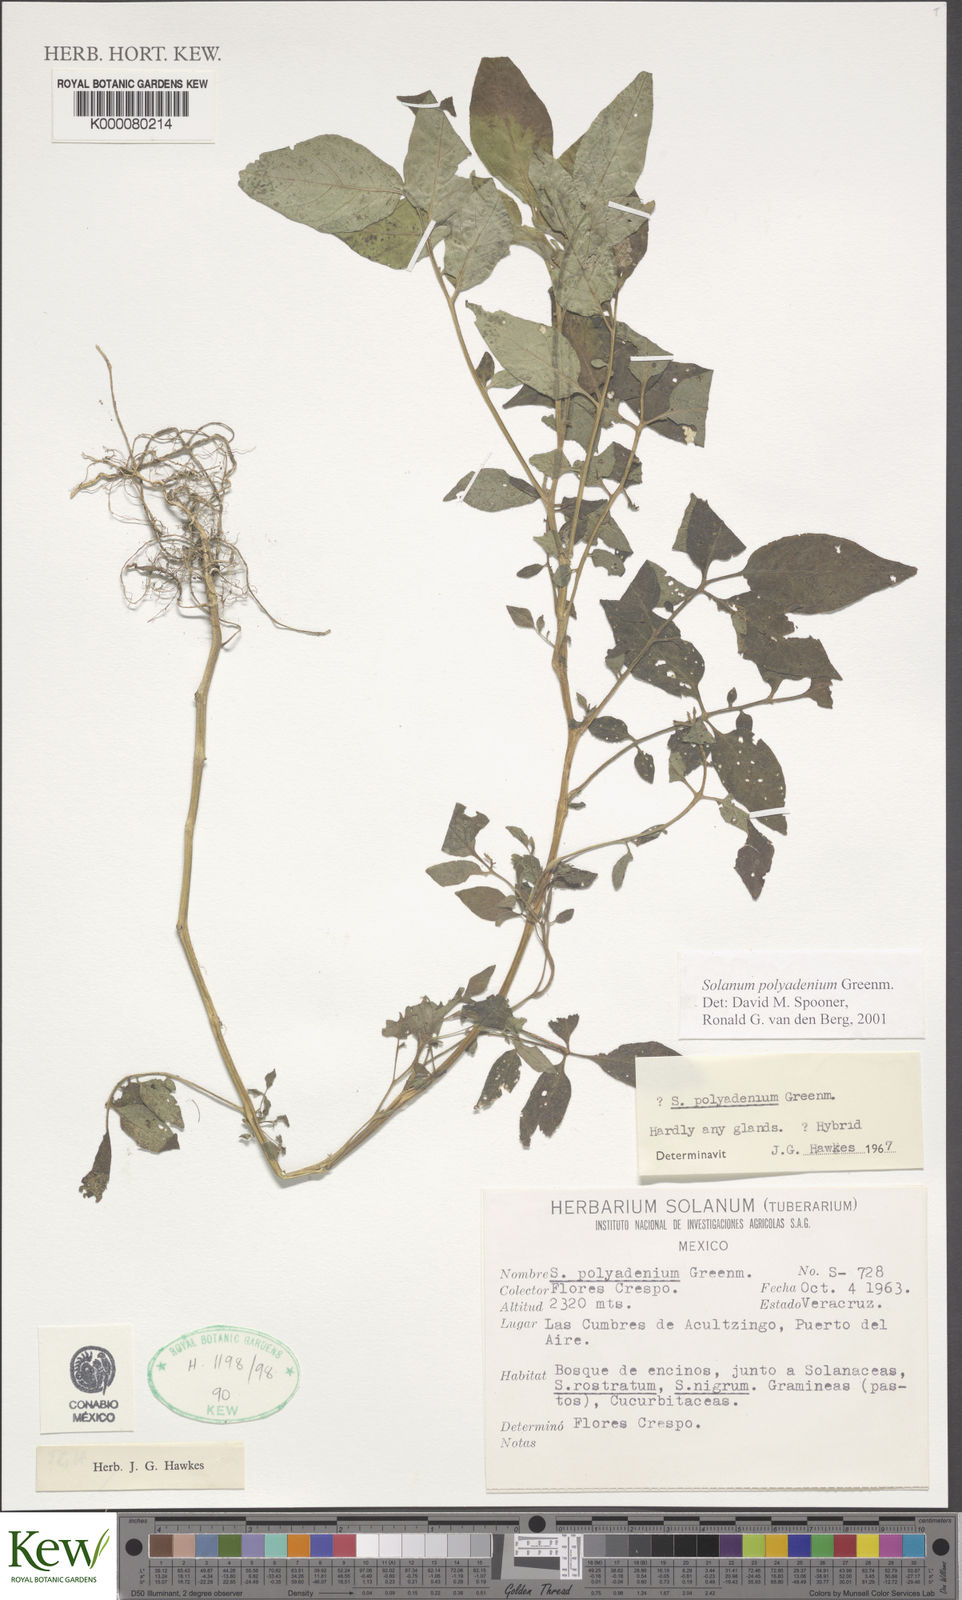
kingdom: Plantae
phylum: Tracheophyta
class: Magnoliopsida
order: Solanales
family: Solanaceae
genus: Solanum
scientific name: Solanum polyadenium
